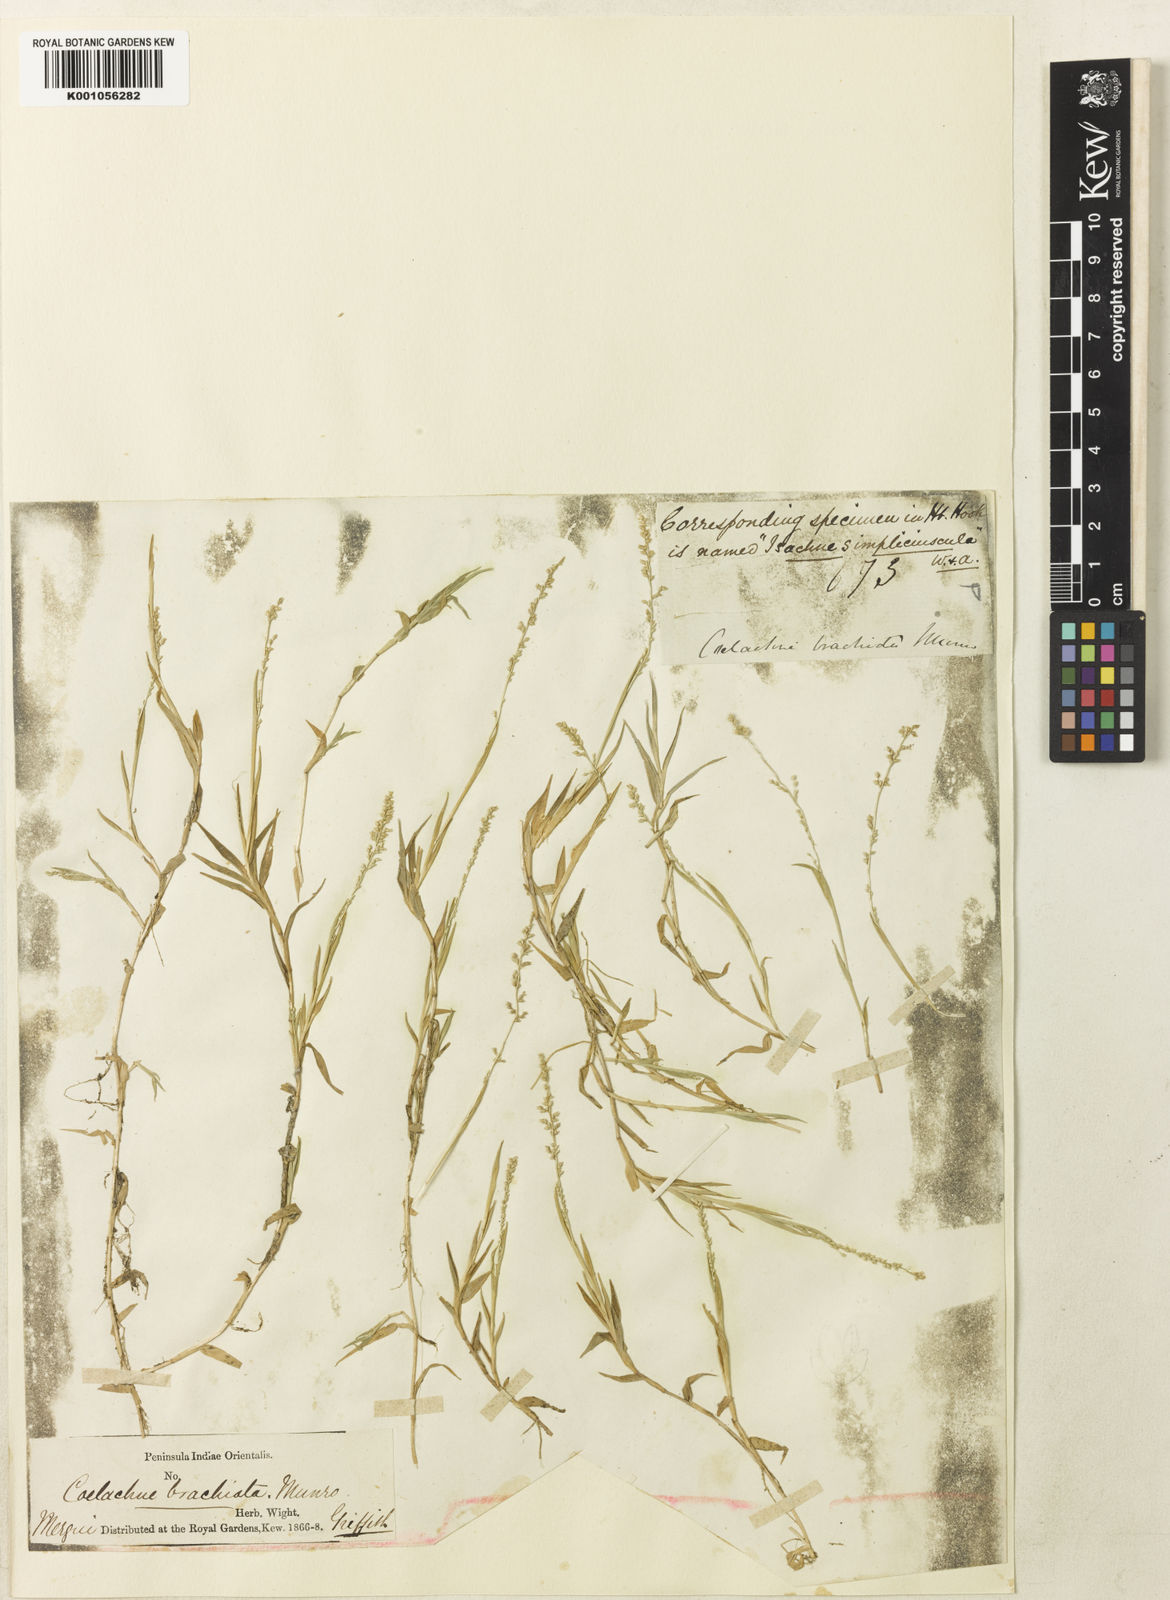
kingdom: Plantae
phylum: Tracheophyta
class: Liliopsida
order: Poales
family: Poaceae
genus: Coelachne
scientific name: Coelachne simpliciuscula
